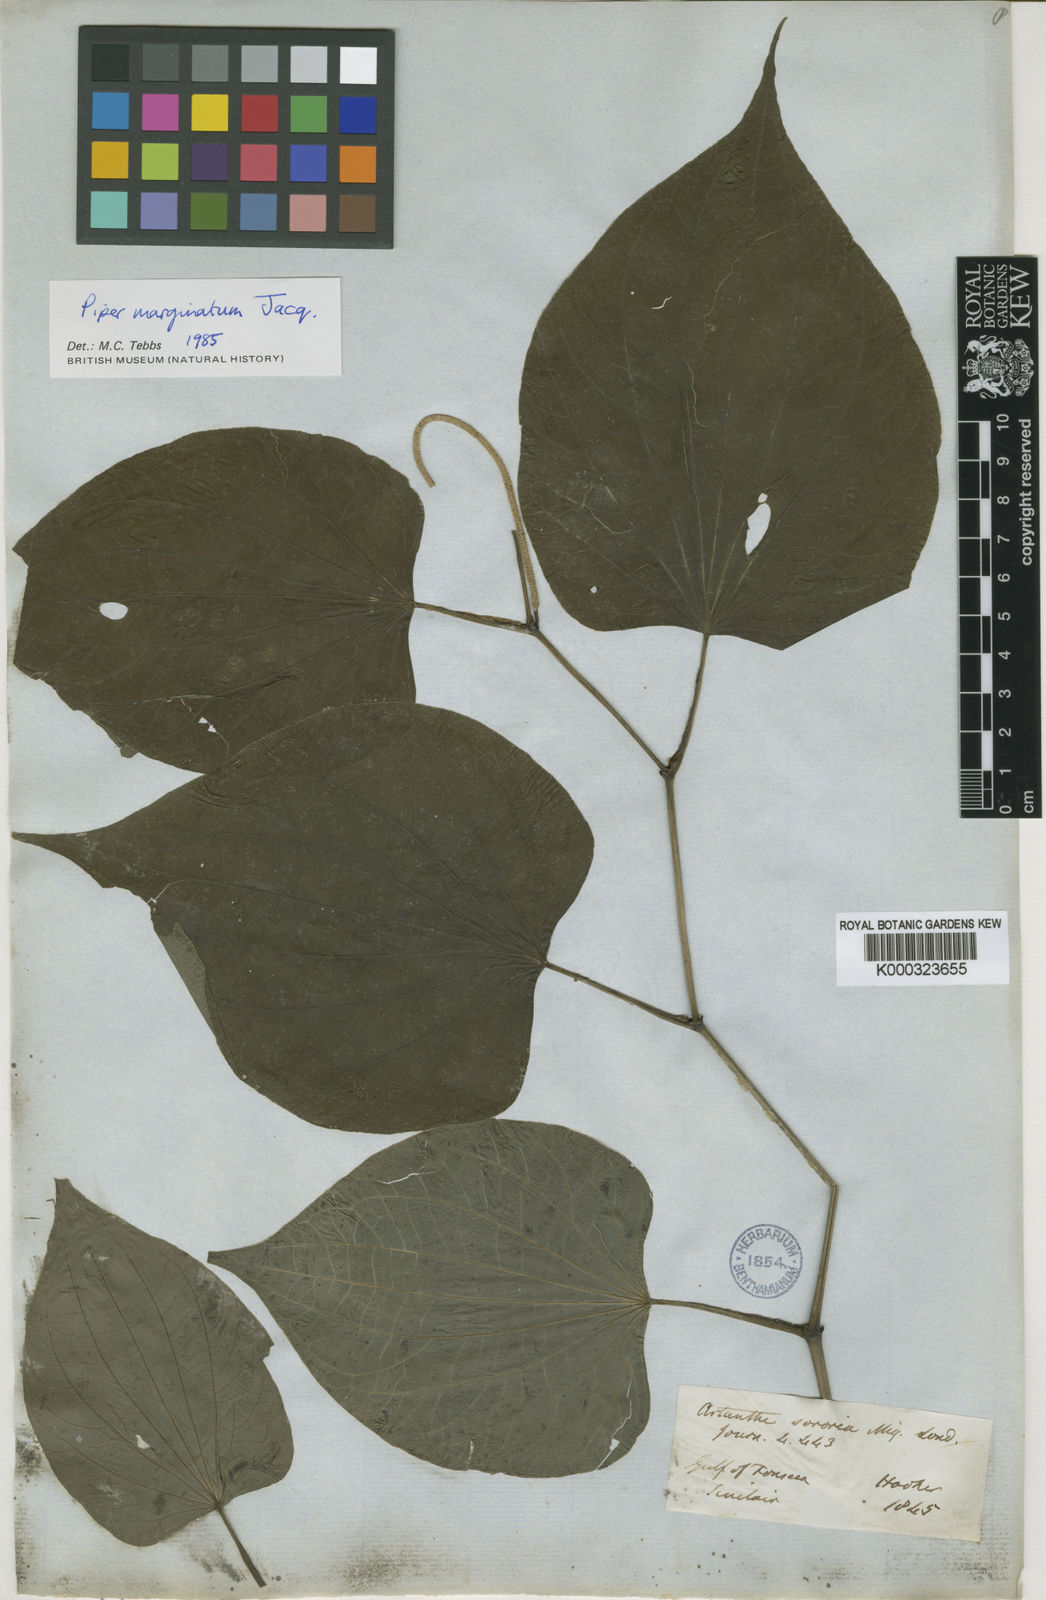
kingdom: Plantae
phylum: Tracheophyta
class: Magnoliopsida
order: Piperales
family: Piperaceae
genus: Piper
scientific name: Piper marginatum
